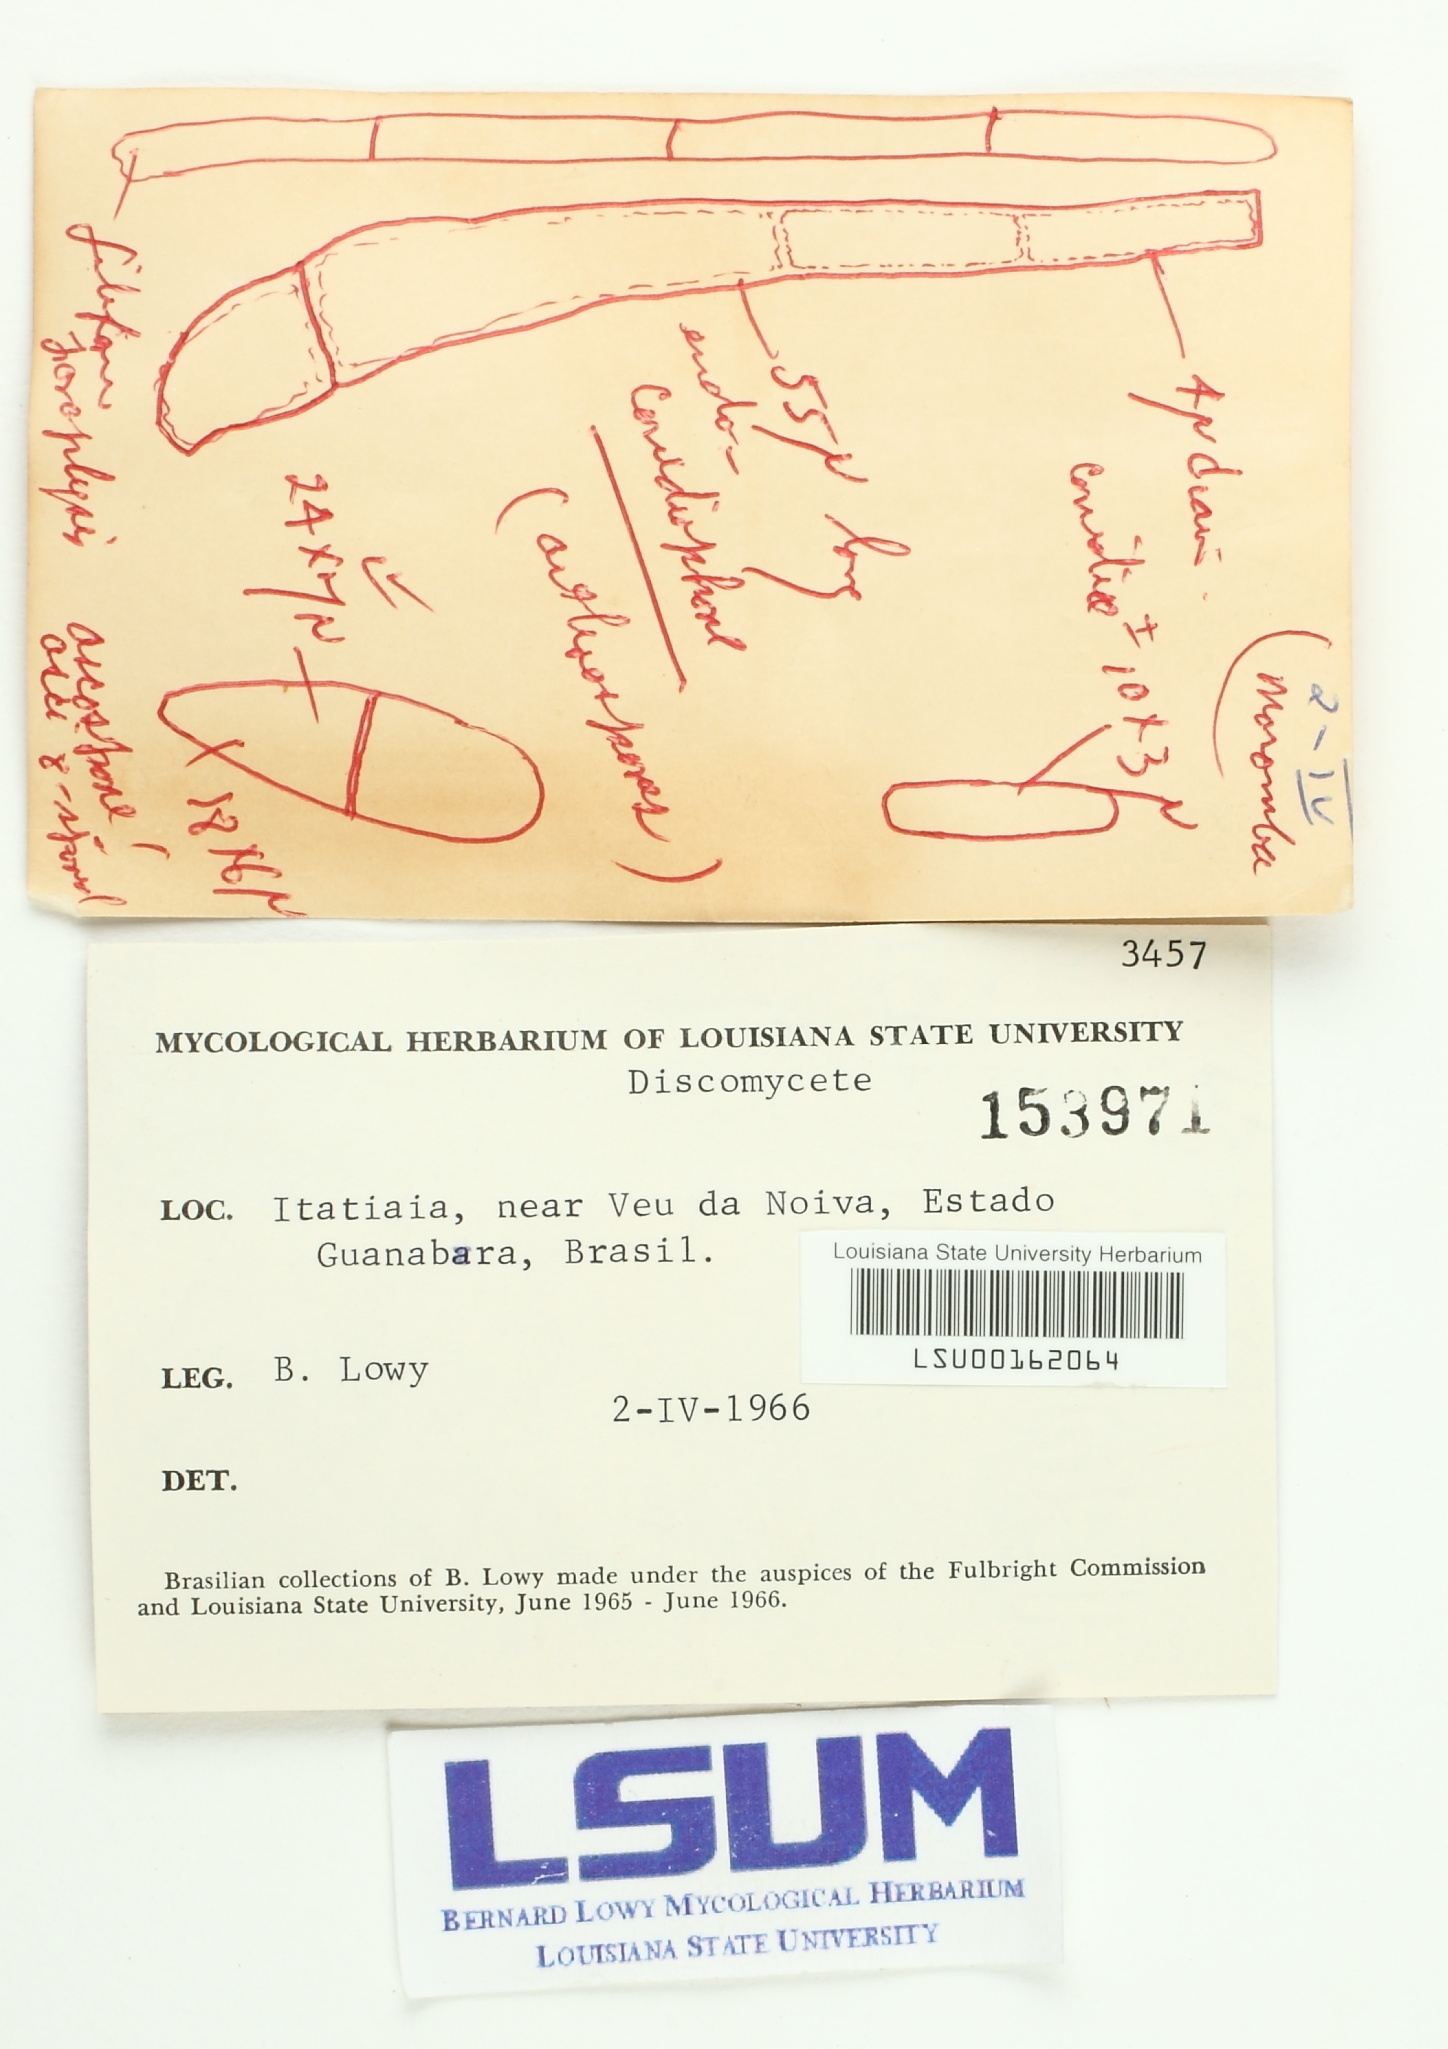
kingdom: Fungi
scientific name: Fungi
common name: Fungi
